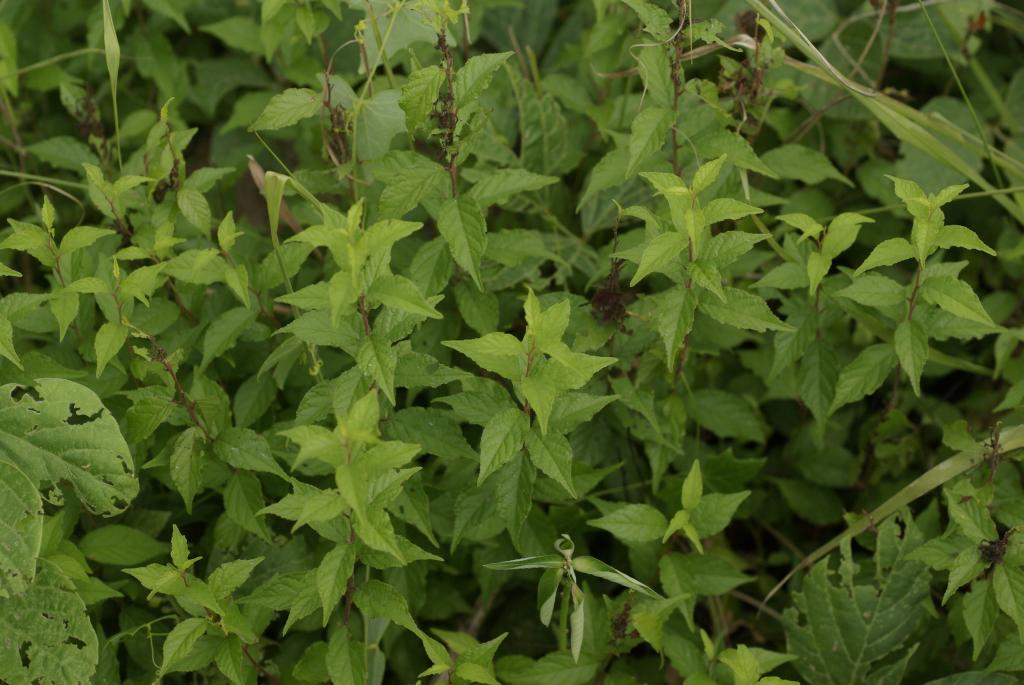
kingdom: Plantae
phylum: Tracheophyta
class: Magnoliopsida
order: Rosales
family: Rosaceae
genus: Prunus
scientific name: Prunus pogonostyla
